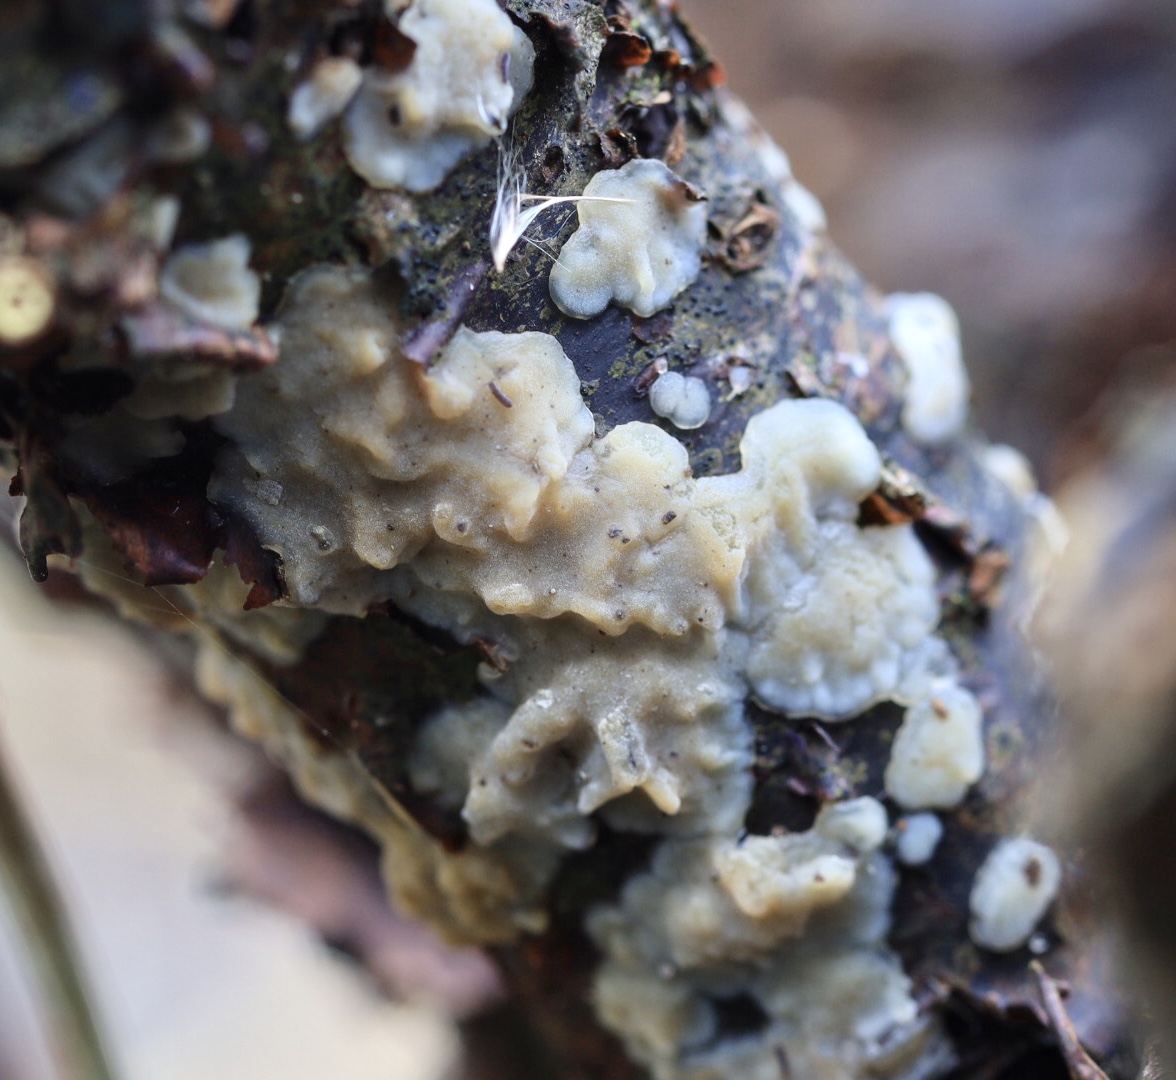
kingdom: Fungi
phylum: Basidiomycota
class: Agaricomycetes
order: Auriculariales
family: Auriculariaceae
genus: Exidia
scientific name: Exidia thuretiana
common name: hvidlig bævretop
